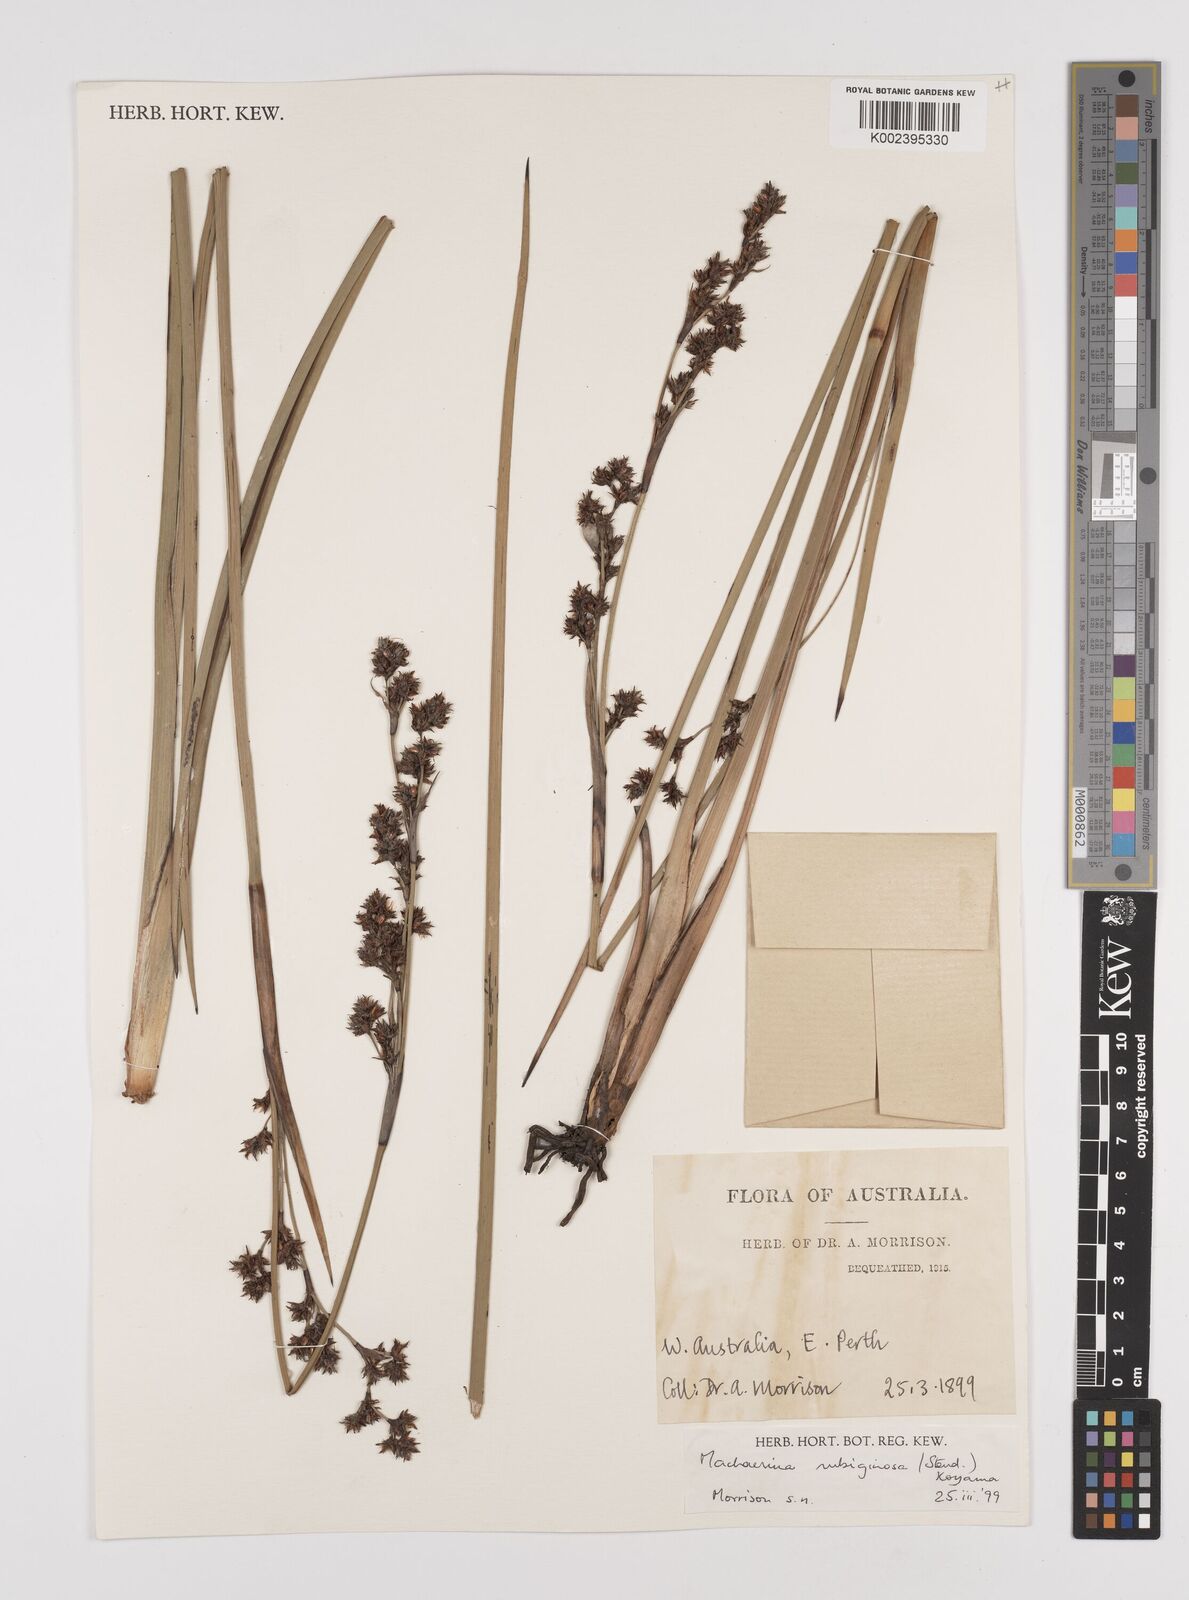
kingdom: Plantae
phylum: Tracheophyta
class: Liliopsida
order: Poales
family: Cyperaceae
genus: Machaerina
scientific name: Machaerina rubiginosa
